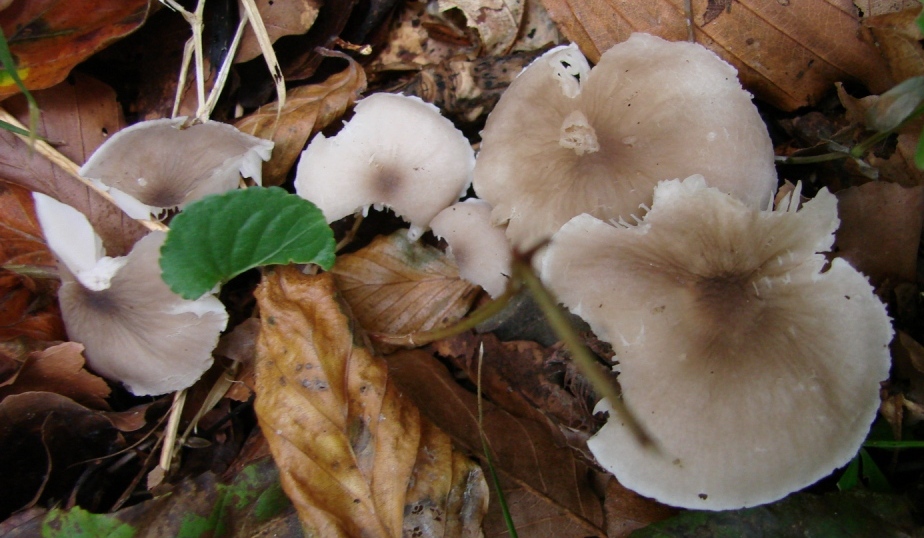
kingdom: Fungi
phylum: Basidiomycota
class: Agaricomycetes
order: Agaricales
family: Tricholomataceae
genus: Dermoloma
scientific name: Dermoloma cuneifolium
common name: eng-nonnehat
